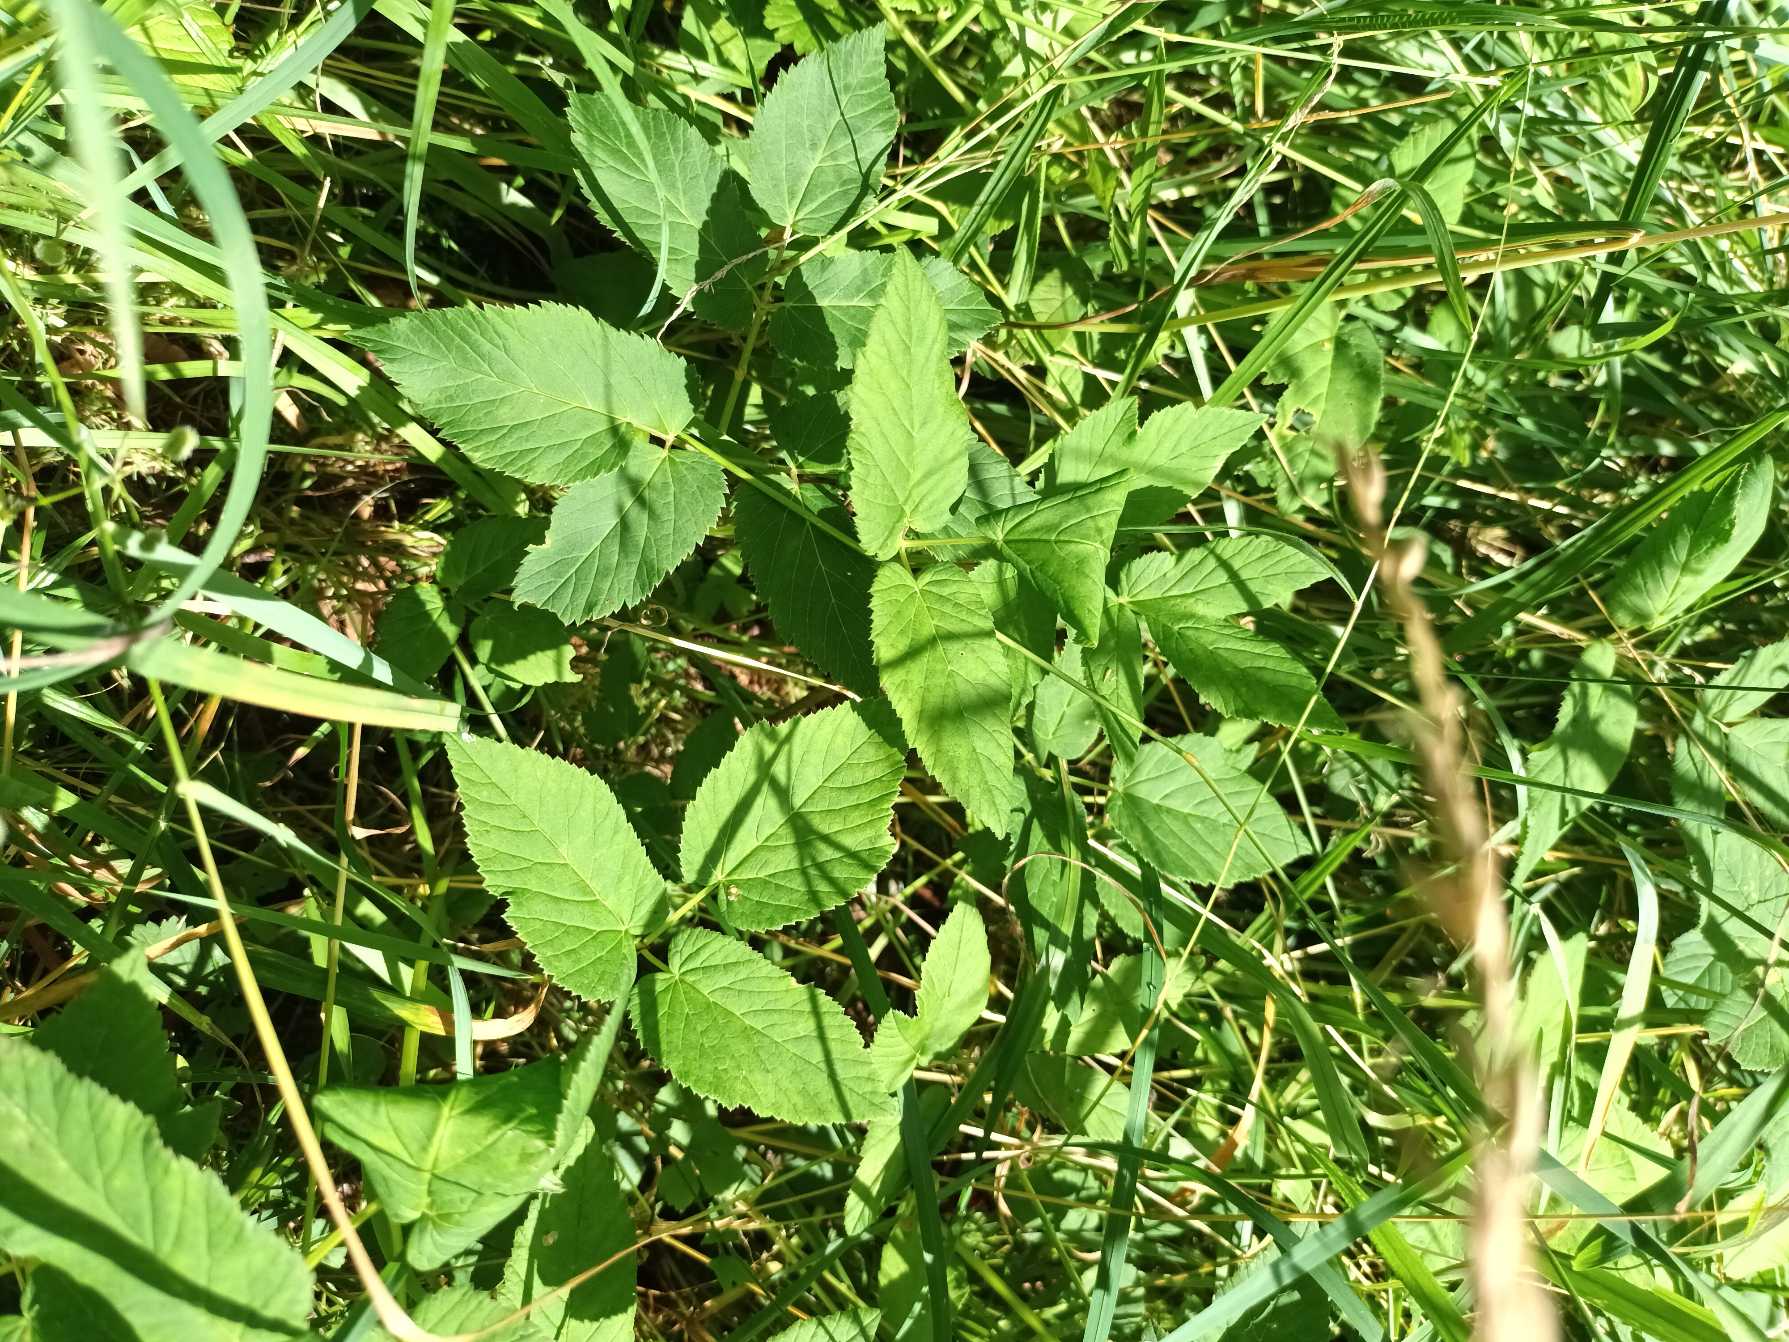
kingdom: Plantae
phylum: Tracheophyta
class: Magnoliopsida
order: Apiales
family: Apiaceae
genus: Aegopodium
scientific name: Aegopodium podagraria
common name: Skvalderkål
